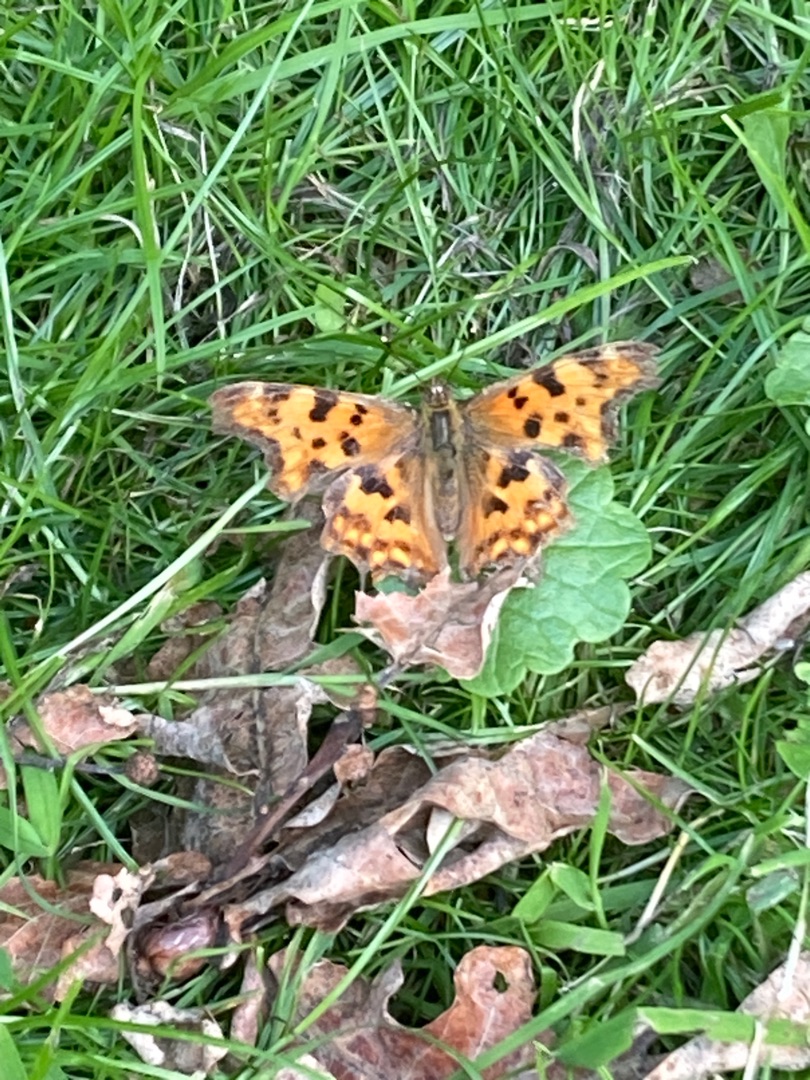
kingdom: Animalia
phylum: Arthropoda
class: Insecta
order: Lepidoptera
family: Nymphalidae
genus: Polygonia
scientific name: Polygonia c-album
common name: Det hvide C
